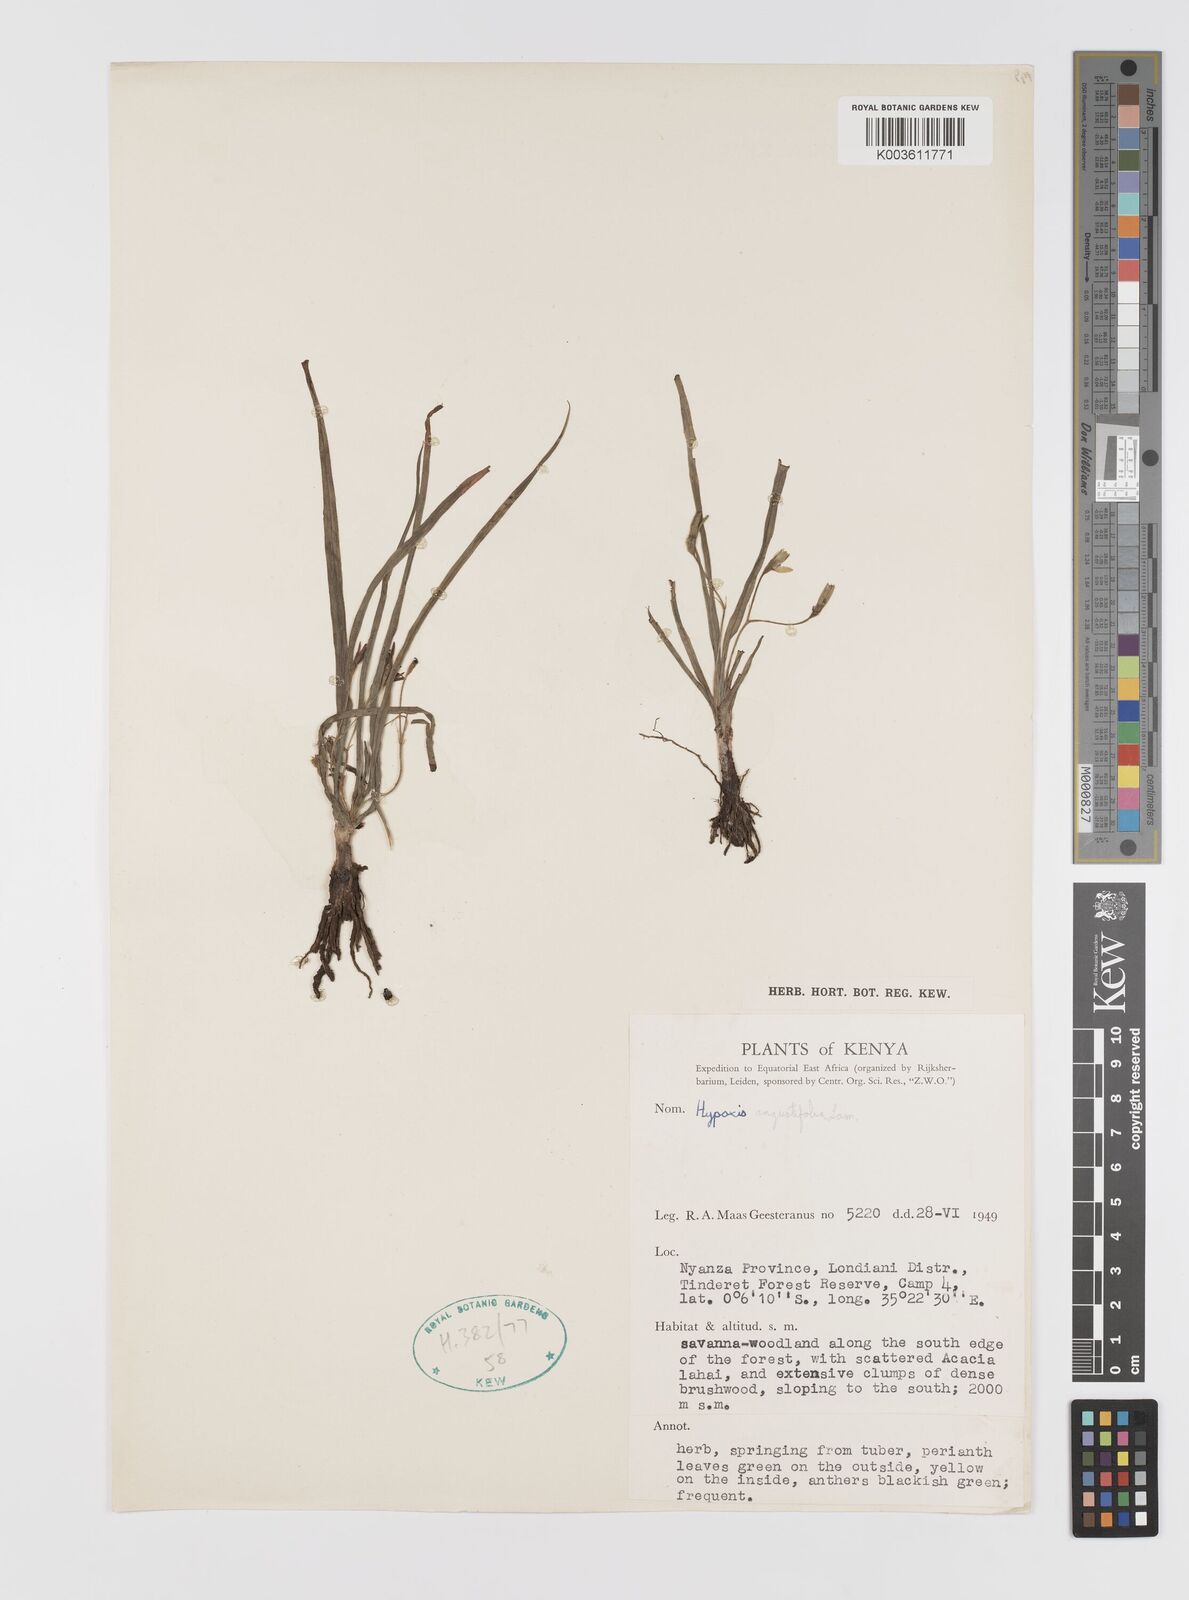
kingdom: Plantae
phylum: Tracheophyta
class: Liliopsida
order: Asparagales
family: Hypoxidaceae
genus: Hypoxis
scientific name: Hypoxis angustifolia
